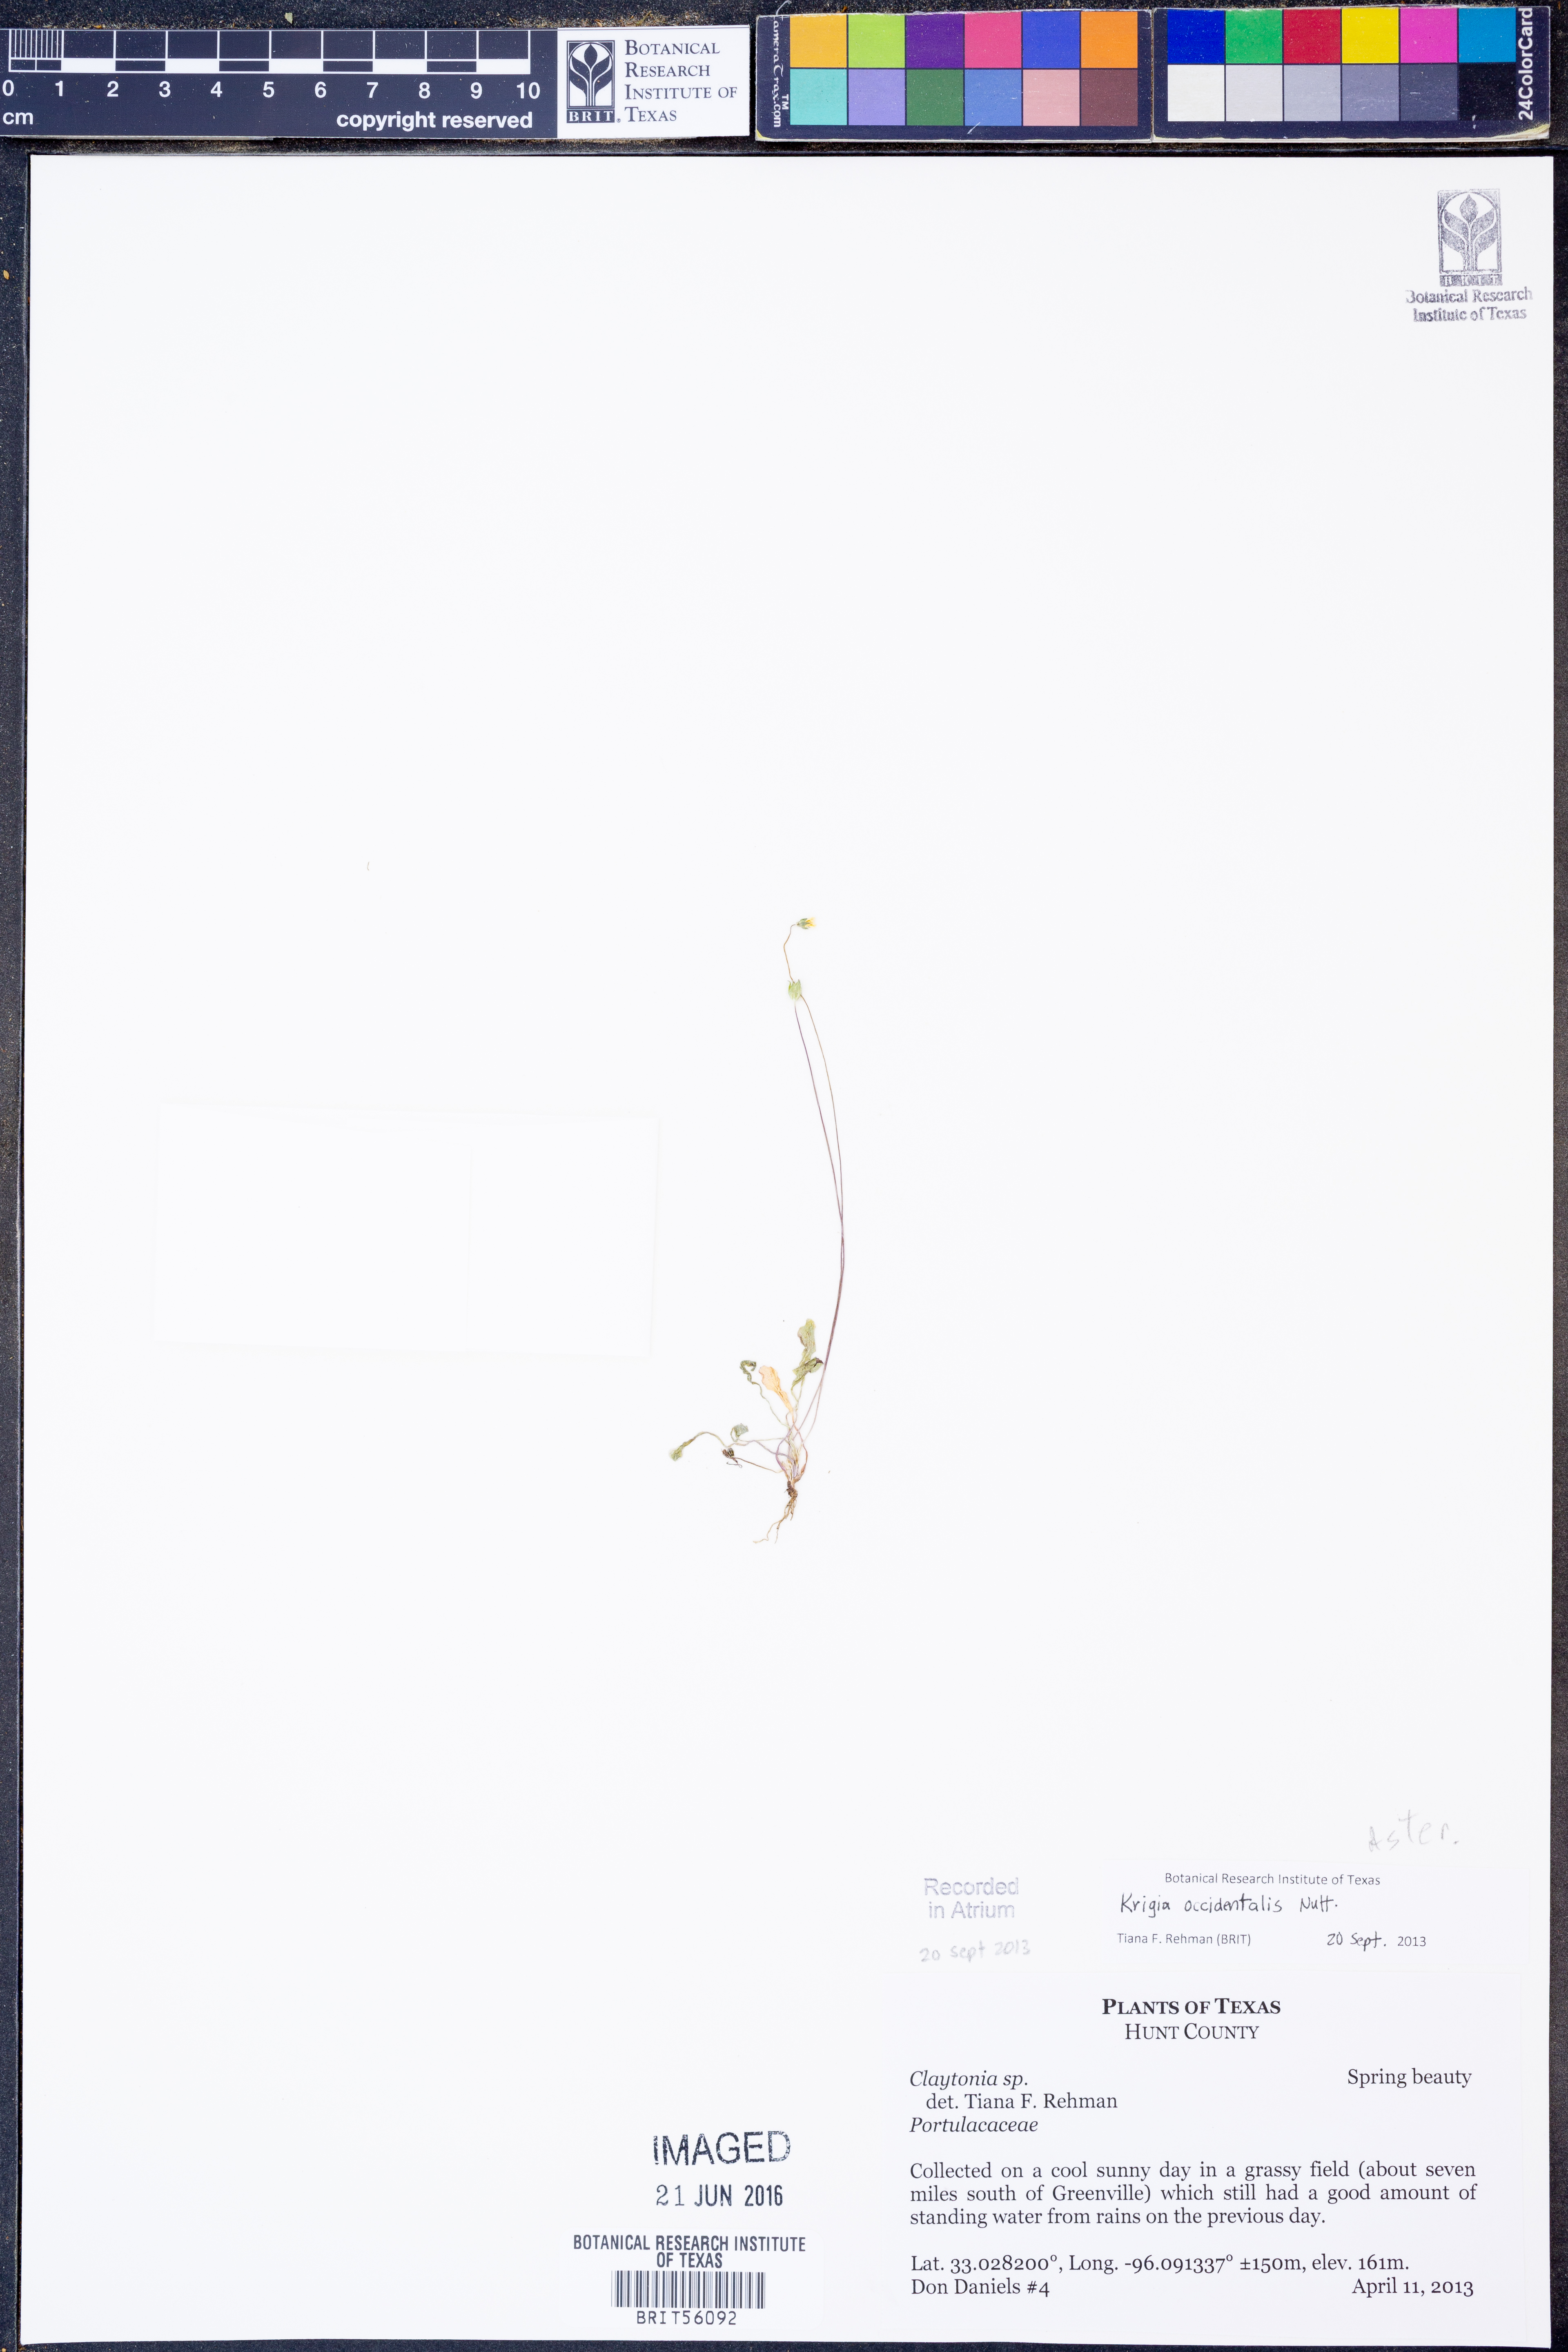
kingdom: Plantae
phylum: Tracheophyta
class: Magnoliopsida
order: Asterales
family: Asteraceae
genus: Krigia
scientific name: Krigia occidentalis
